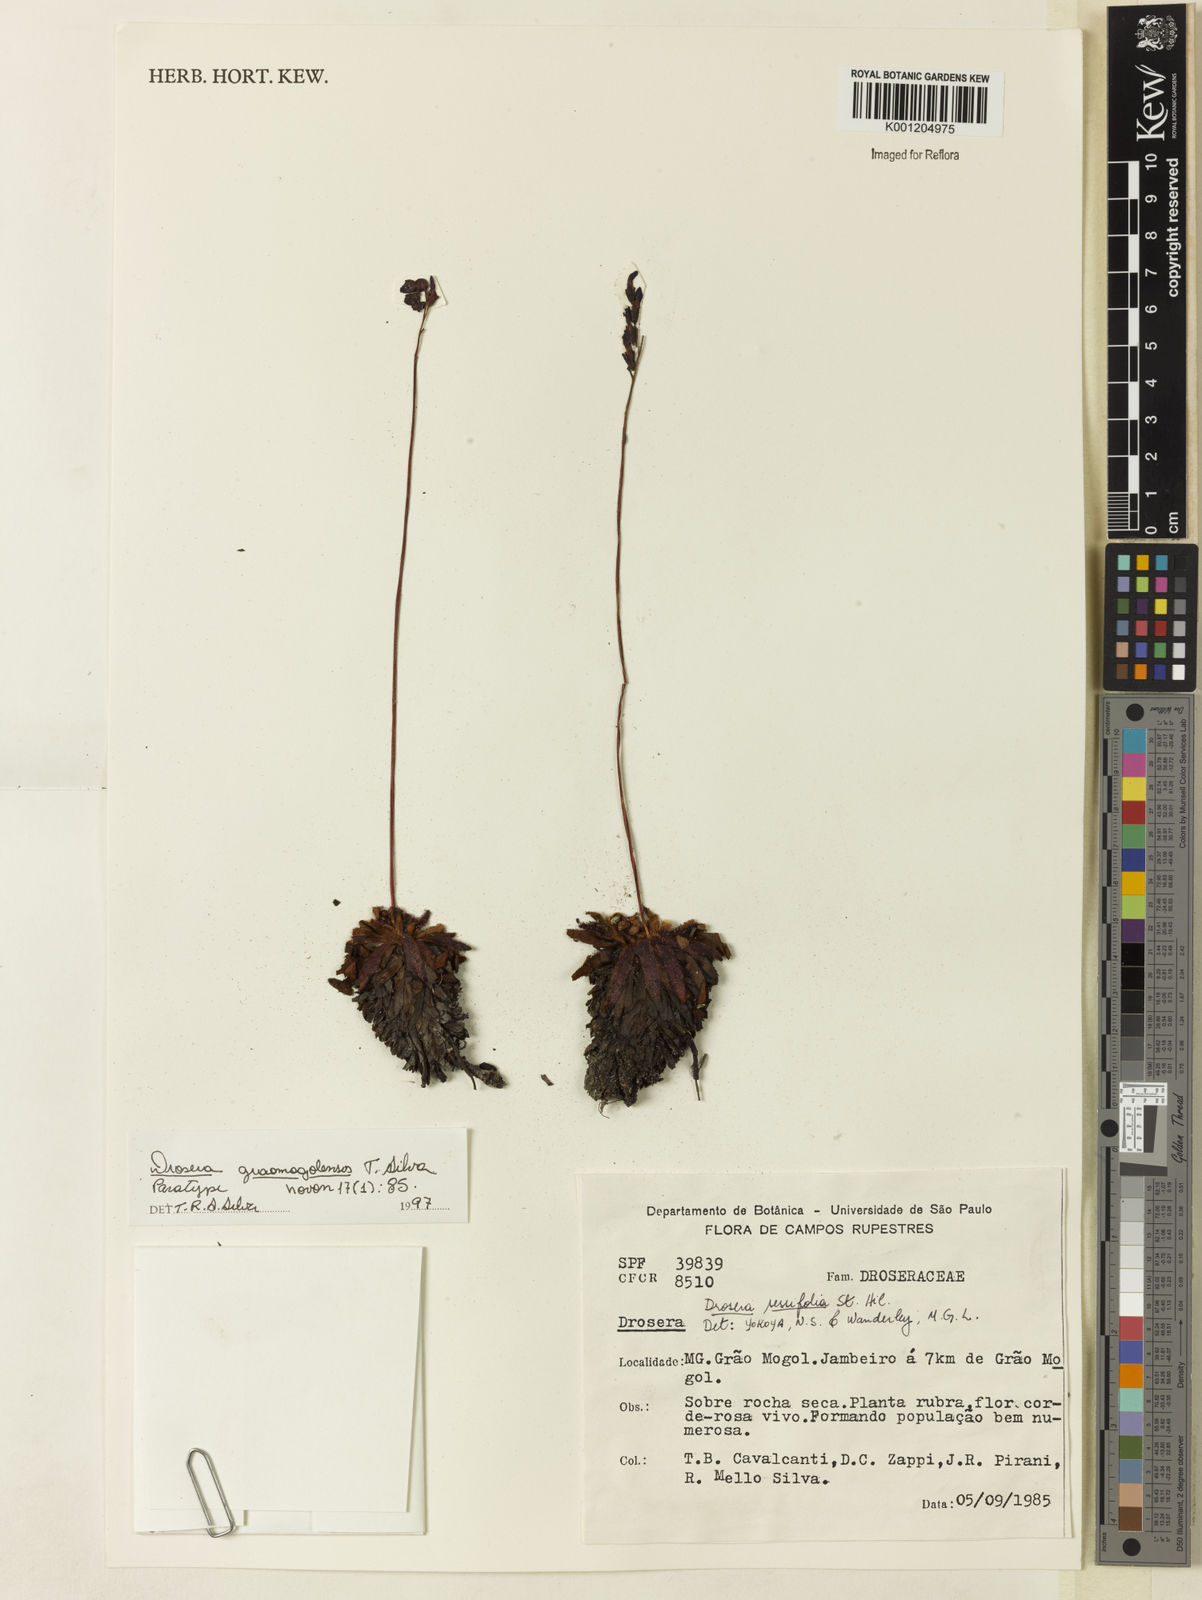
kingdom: Plantae
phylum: Tracheophyta
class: Magnoliopsida
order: Caryophyllales
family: Droseraceae
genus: Drosera
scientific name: Drosera graomogolensis
